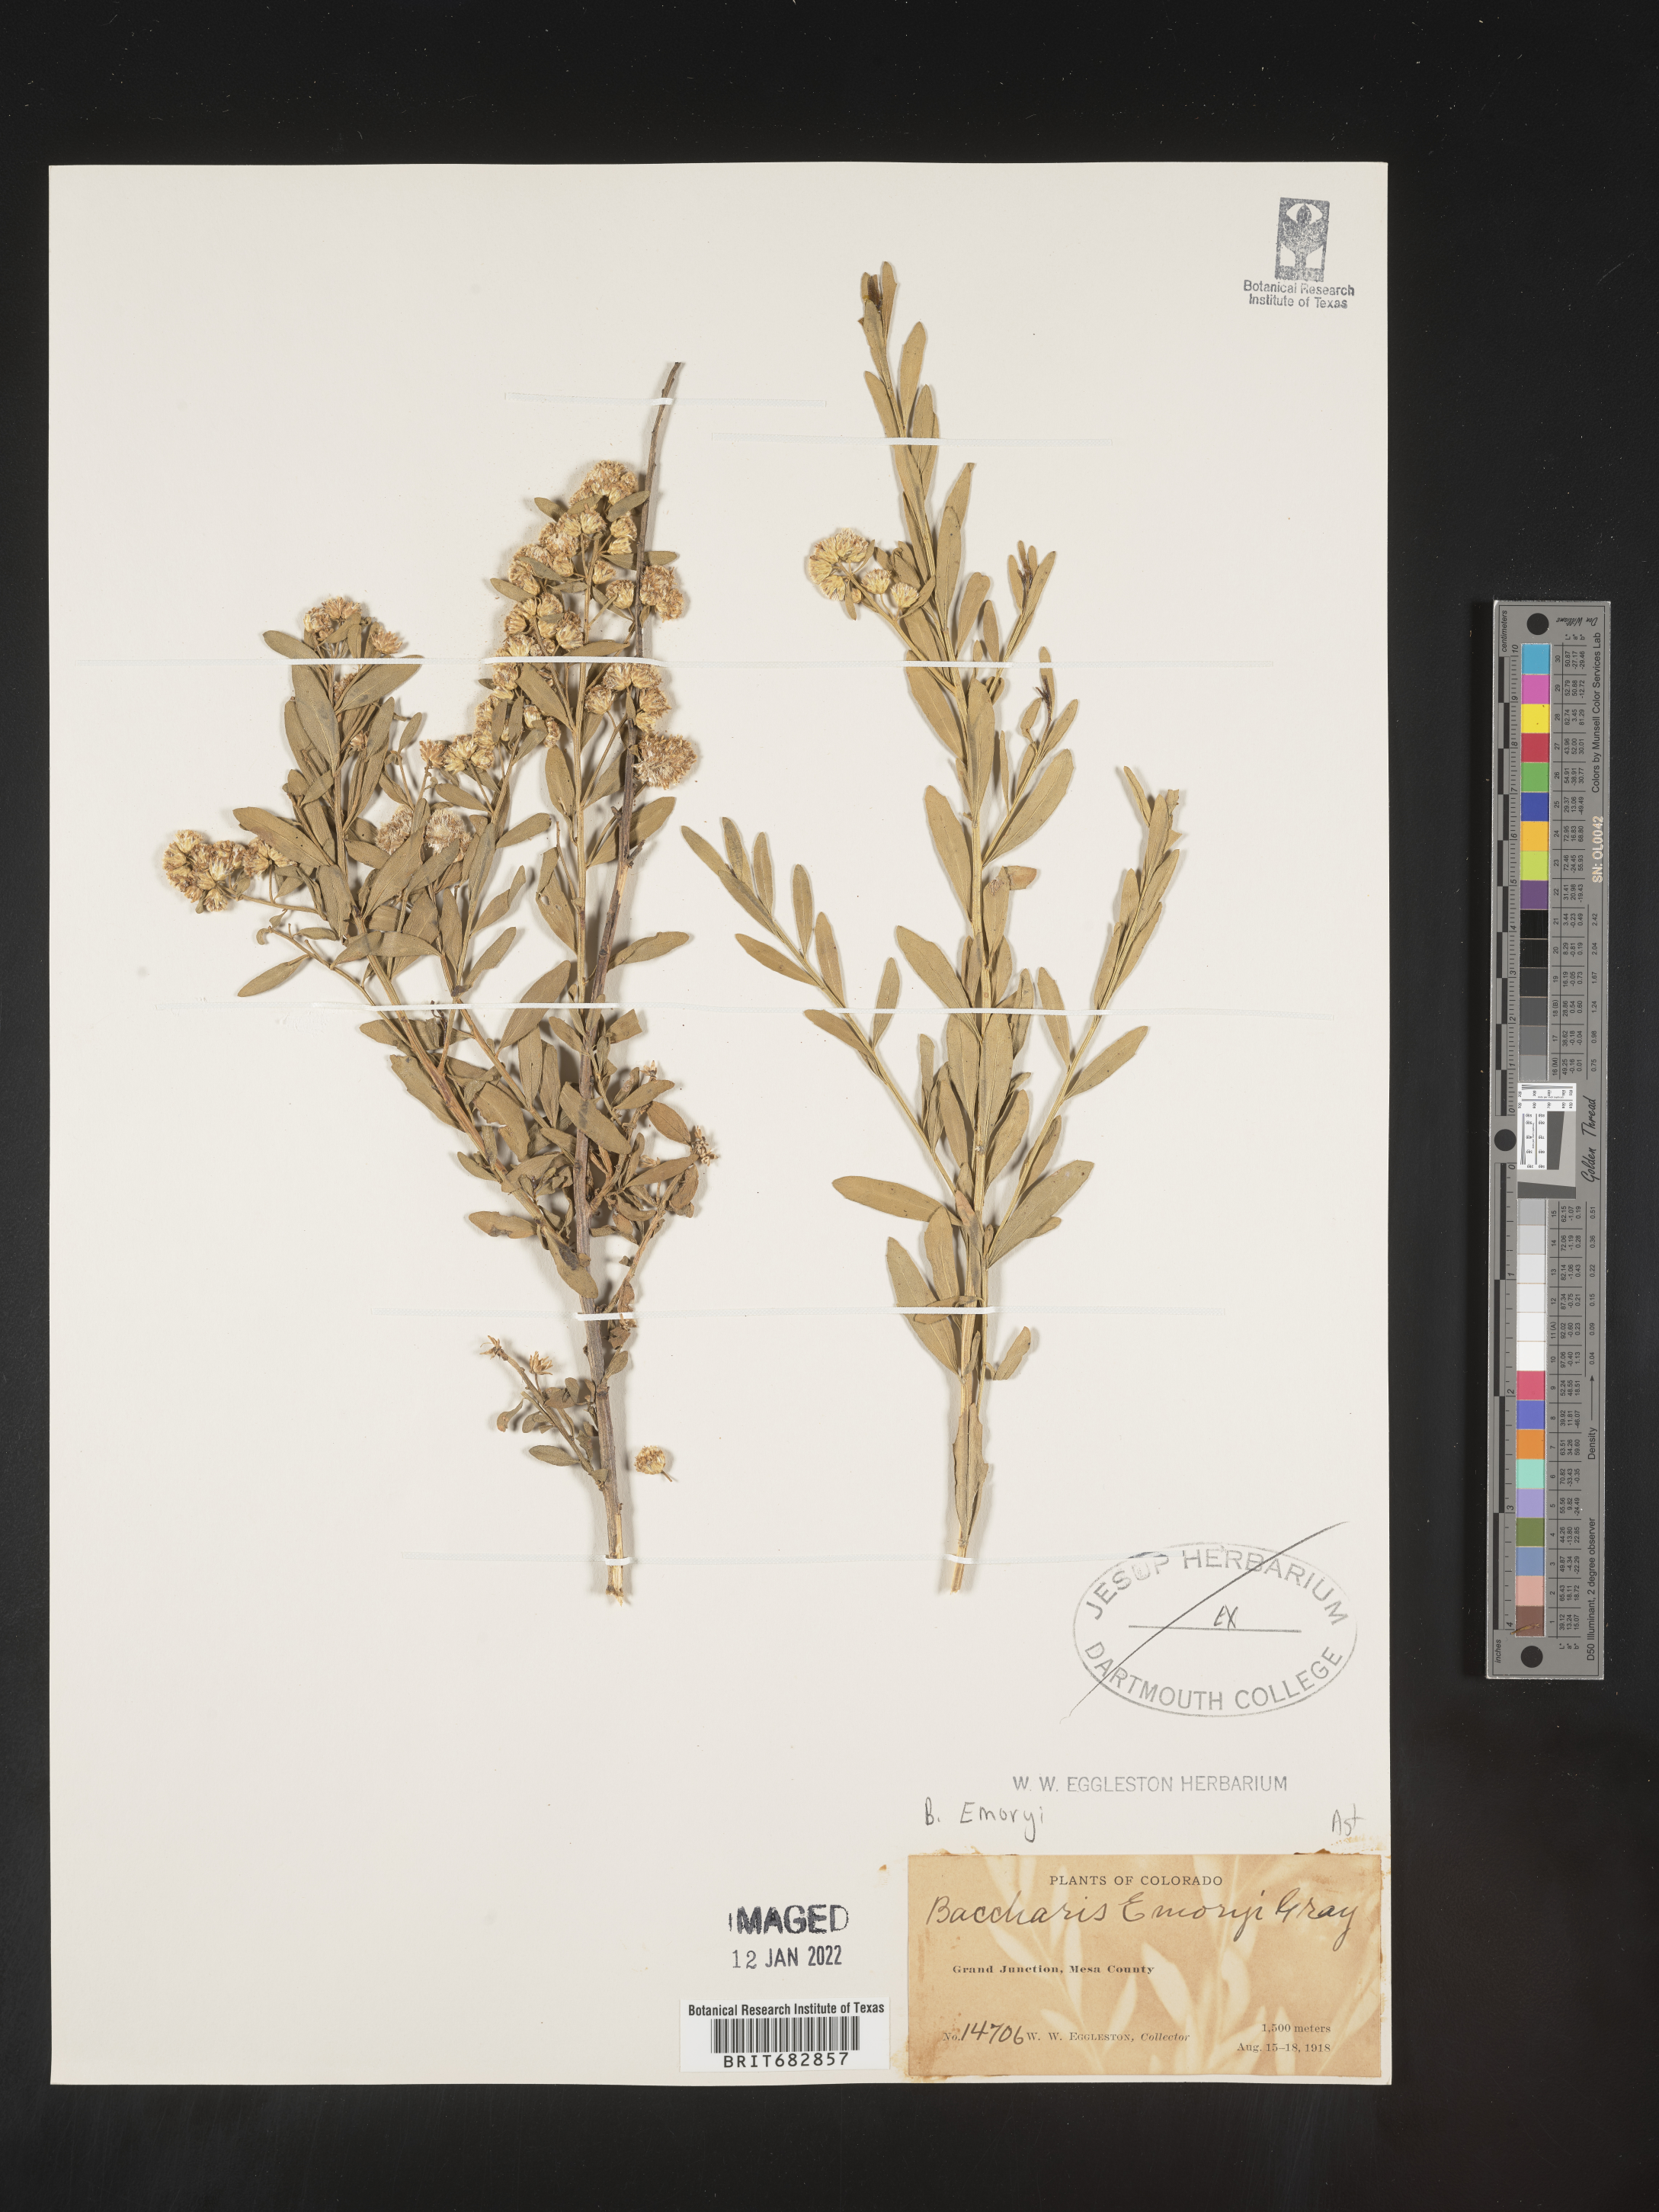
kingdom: Plantae
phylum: Tracheophyta
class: Magnoliopsida
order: Asterales
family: Asteraceae
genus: Baccharis
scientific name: Baccharis salicina
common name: Willow baccharis
